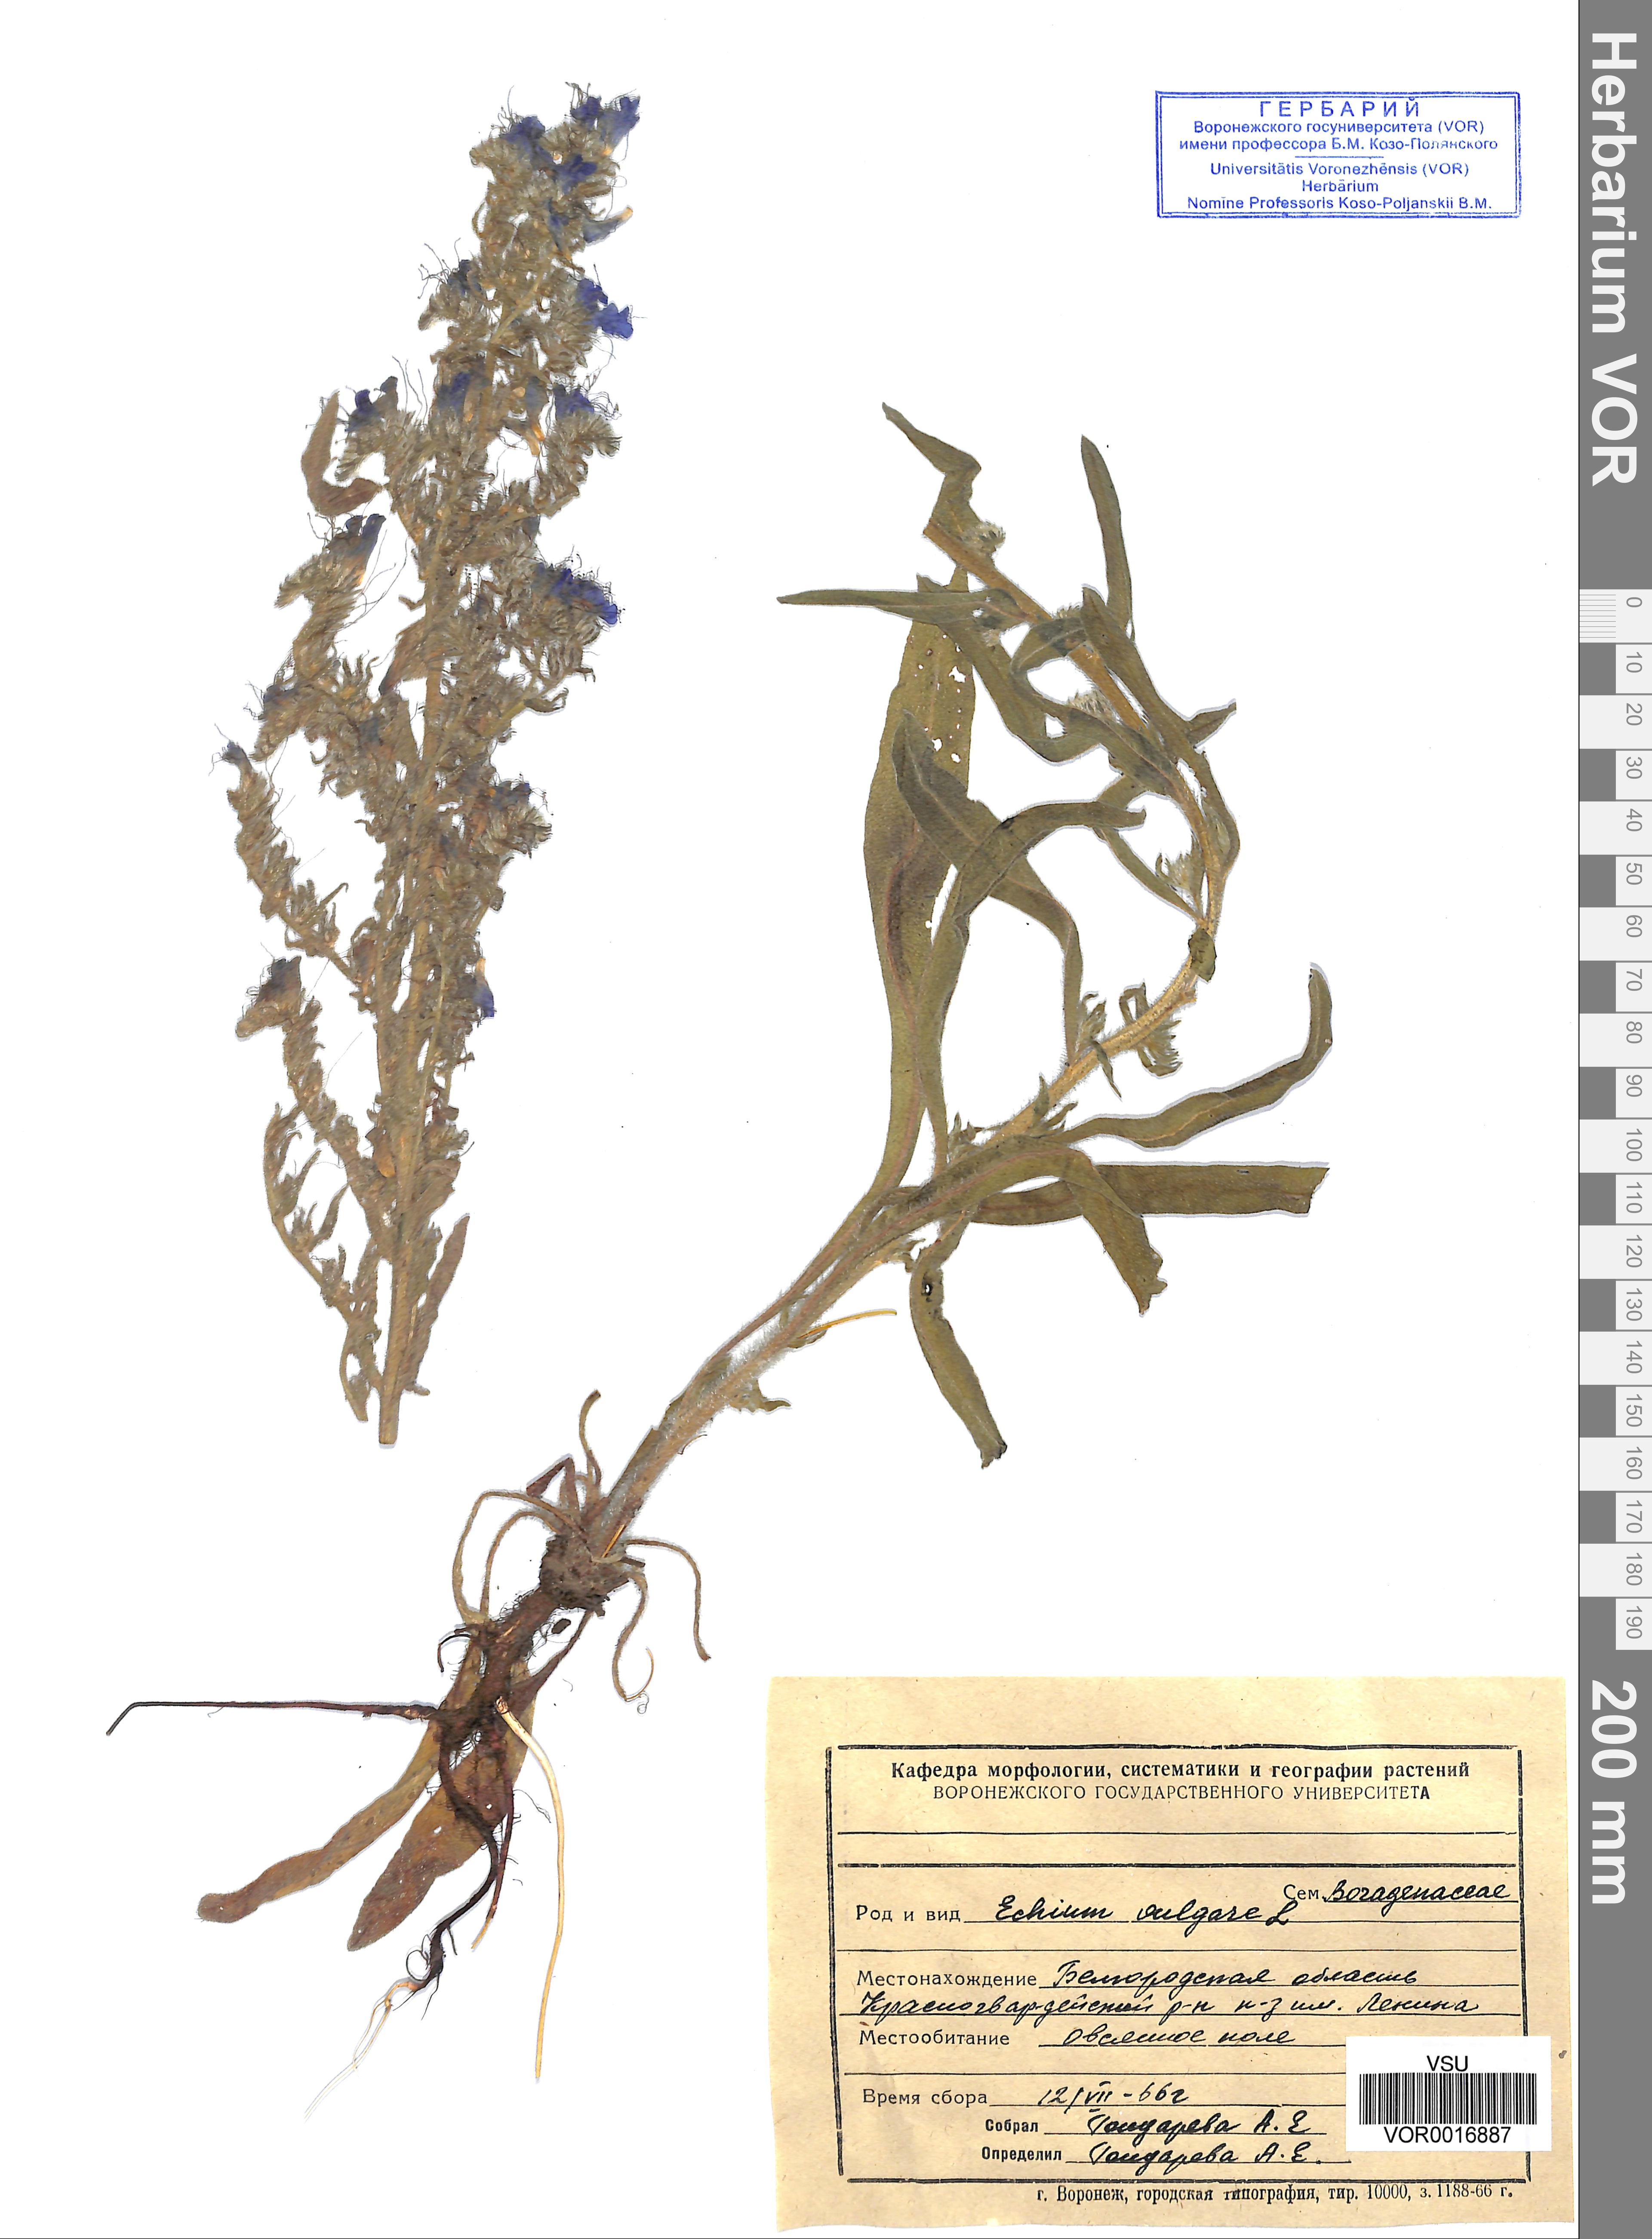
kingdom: Plantae
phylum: Tracheophyta
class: Magnoliopsida
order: Boraginales
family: Boraginaceae
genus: Echium
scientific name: Echium vulgare
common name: Common viper's bugloss
